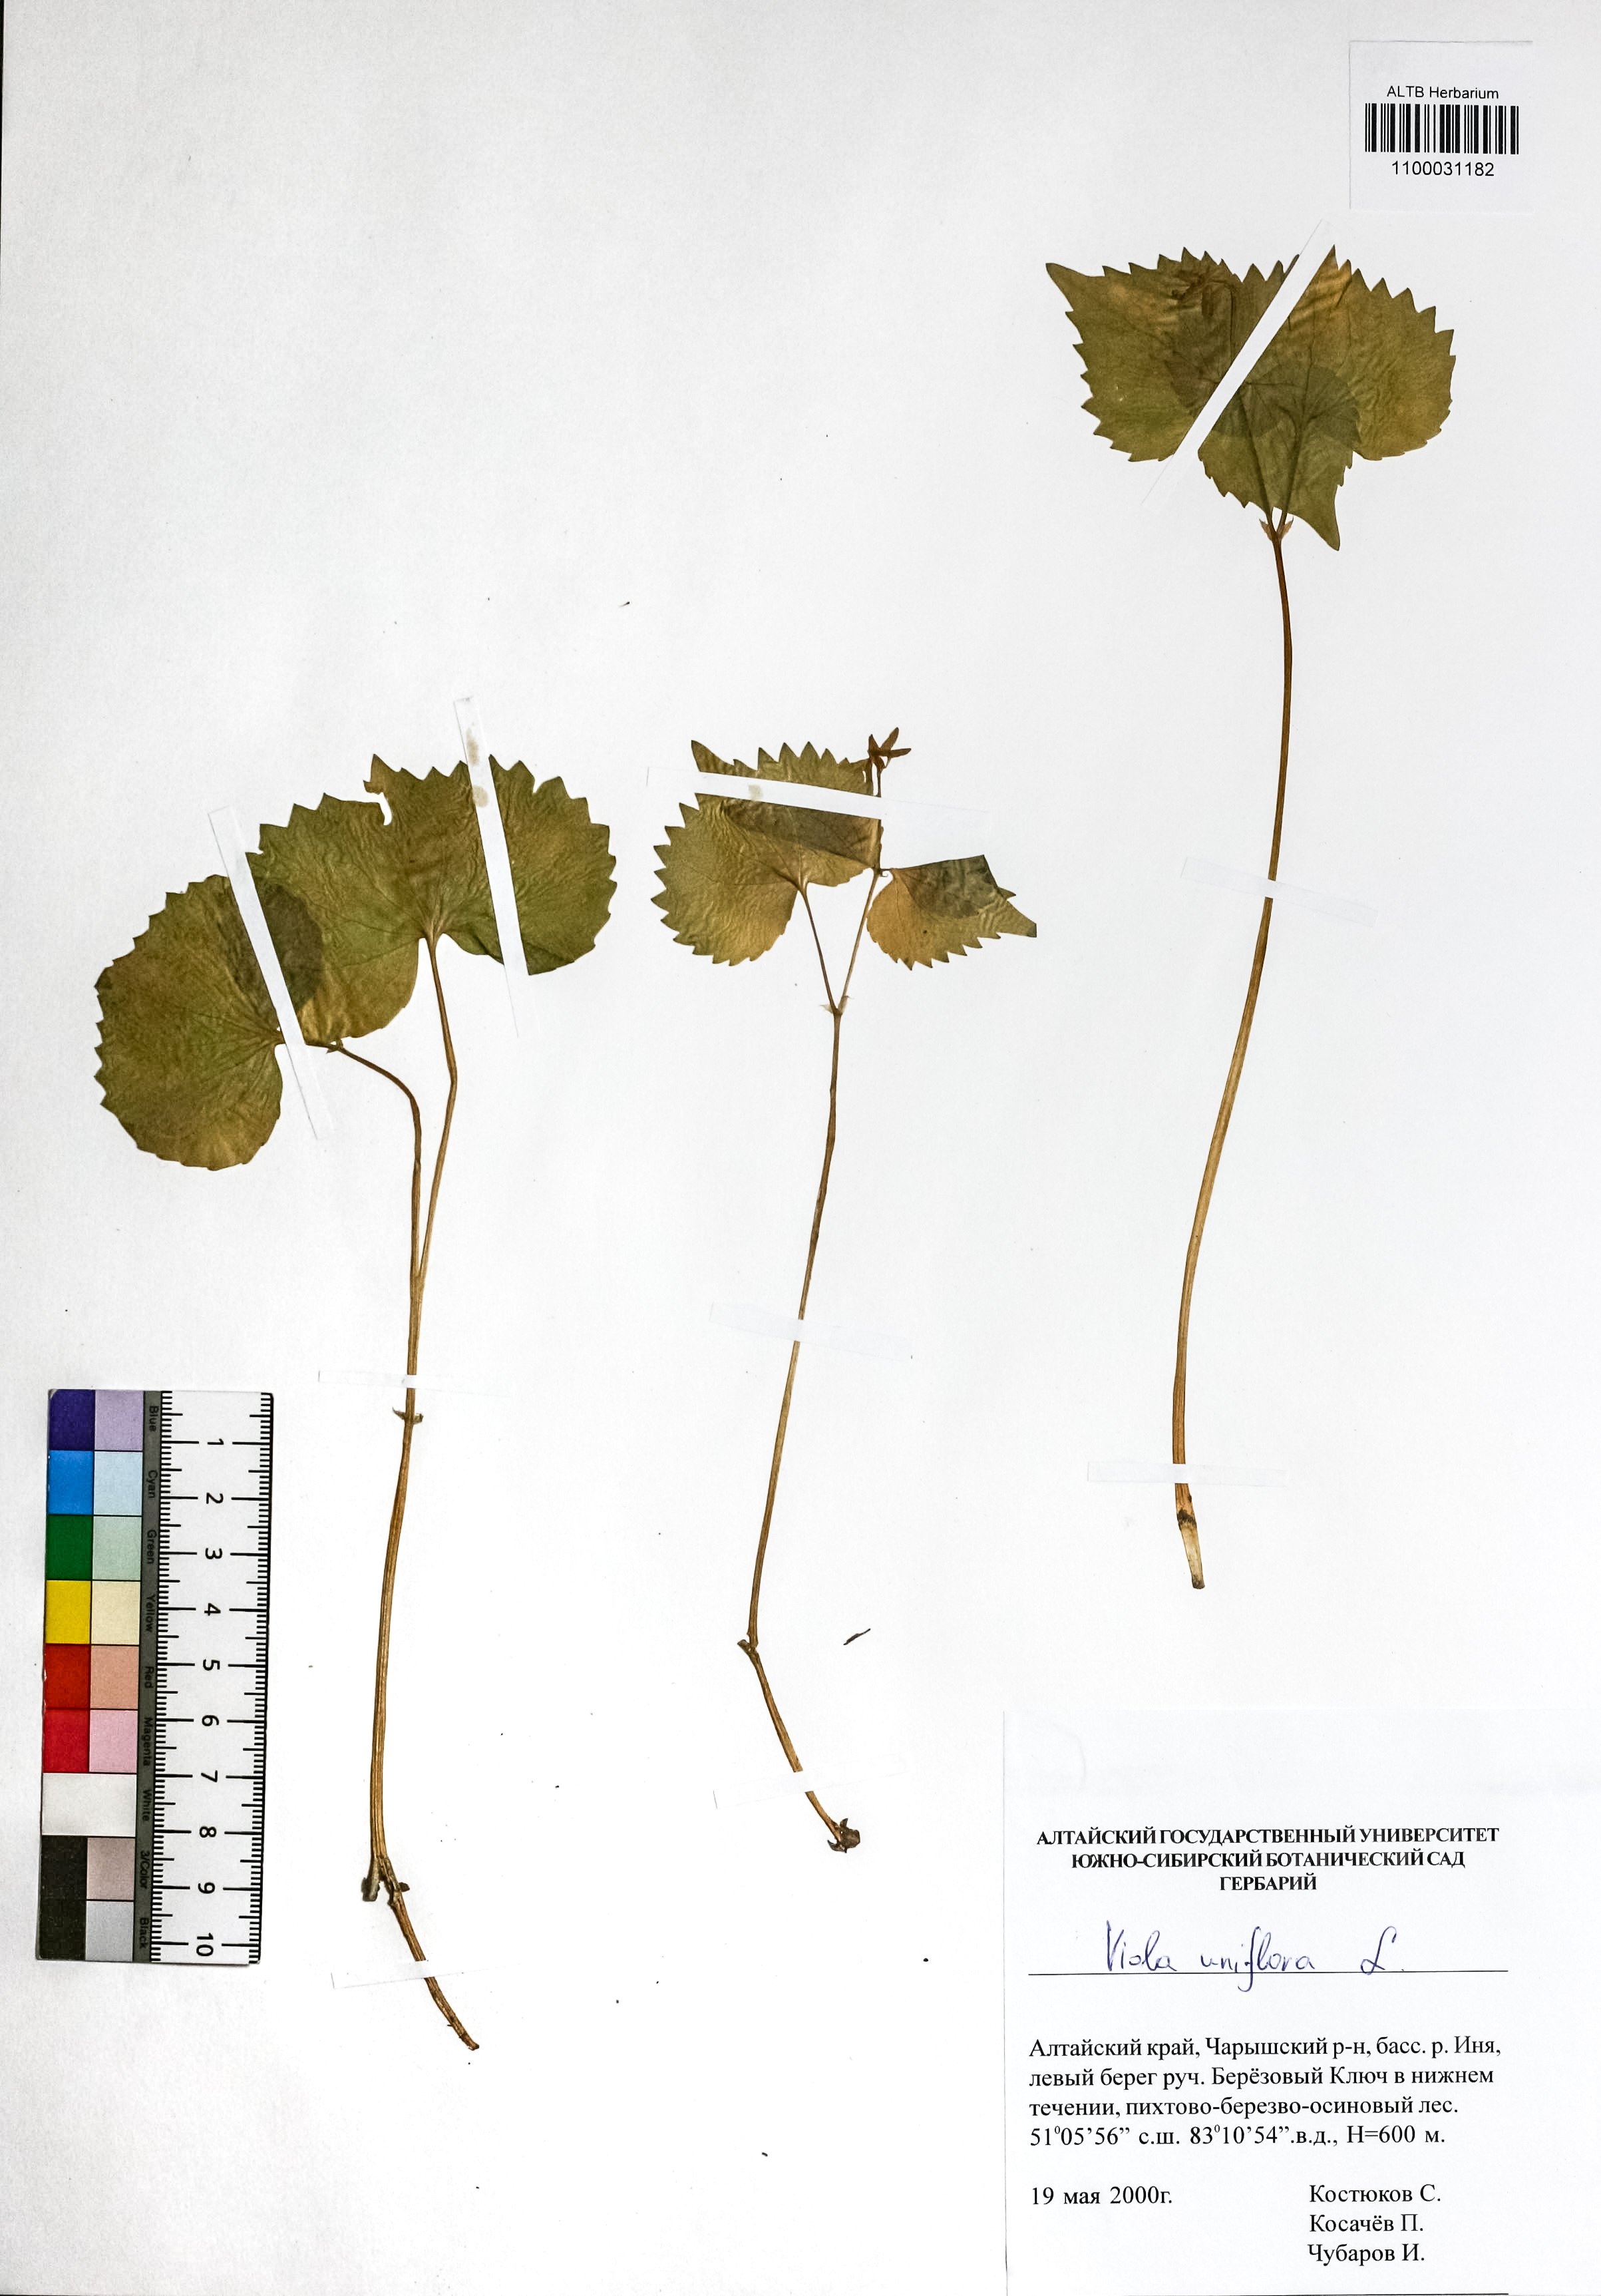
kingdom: Plantae
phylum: Tracheophyta
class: Magnoliopsida
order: Malpighiales
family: Violaceae
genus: Viola
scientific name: Viola uniflora
